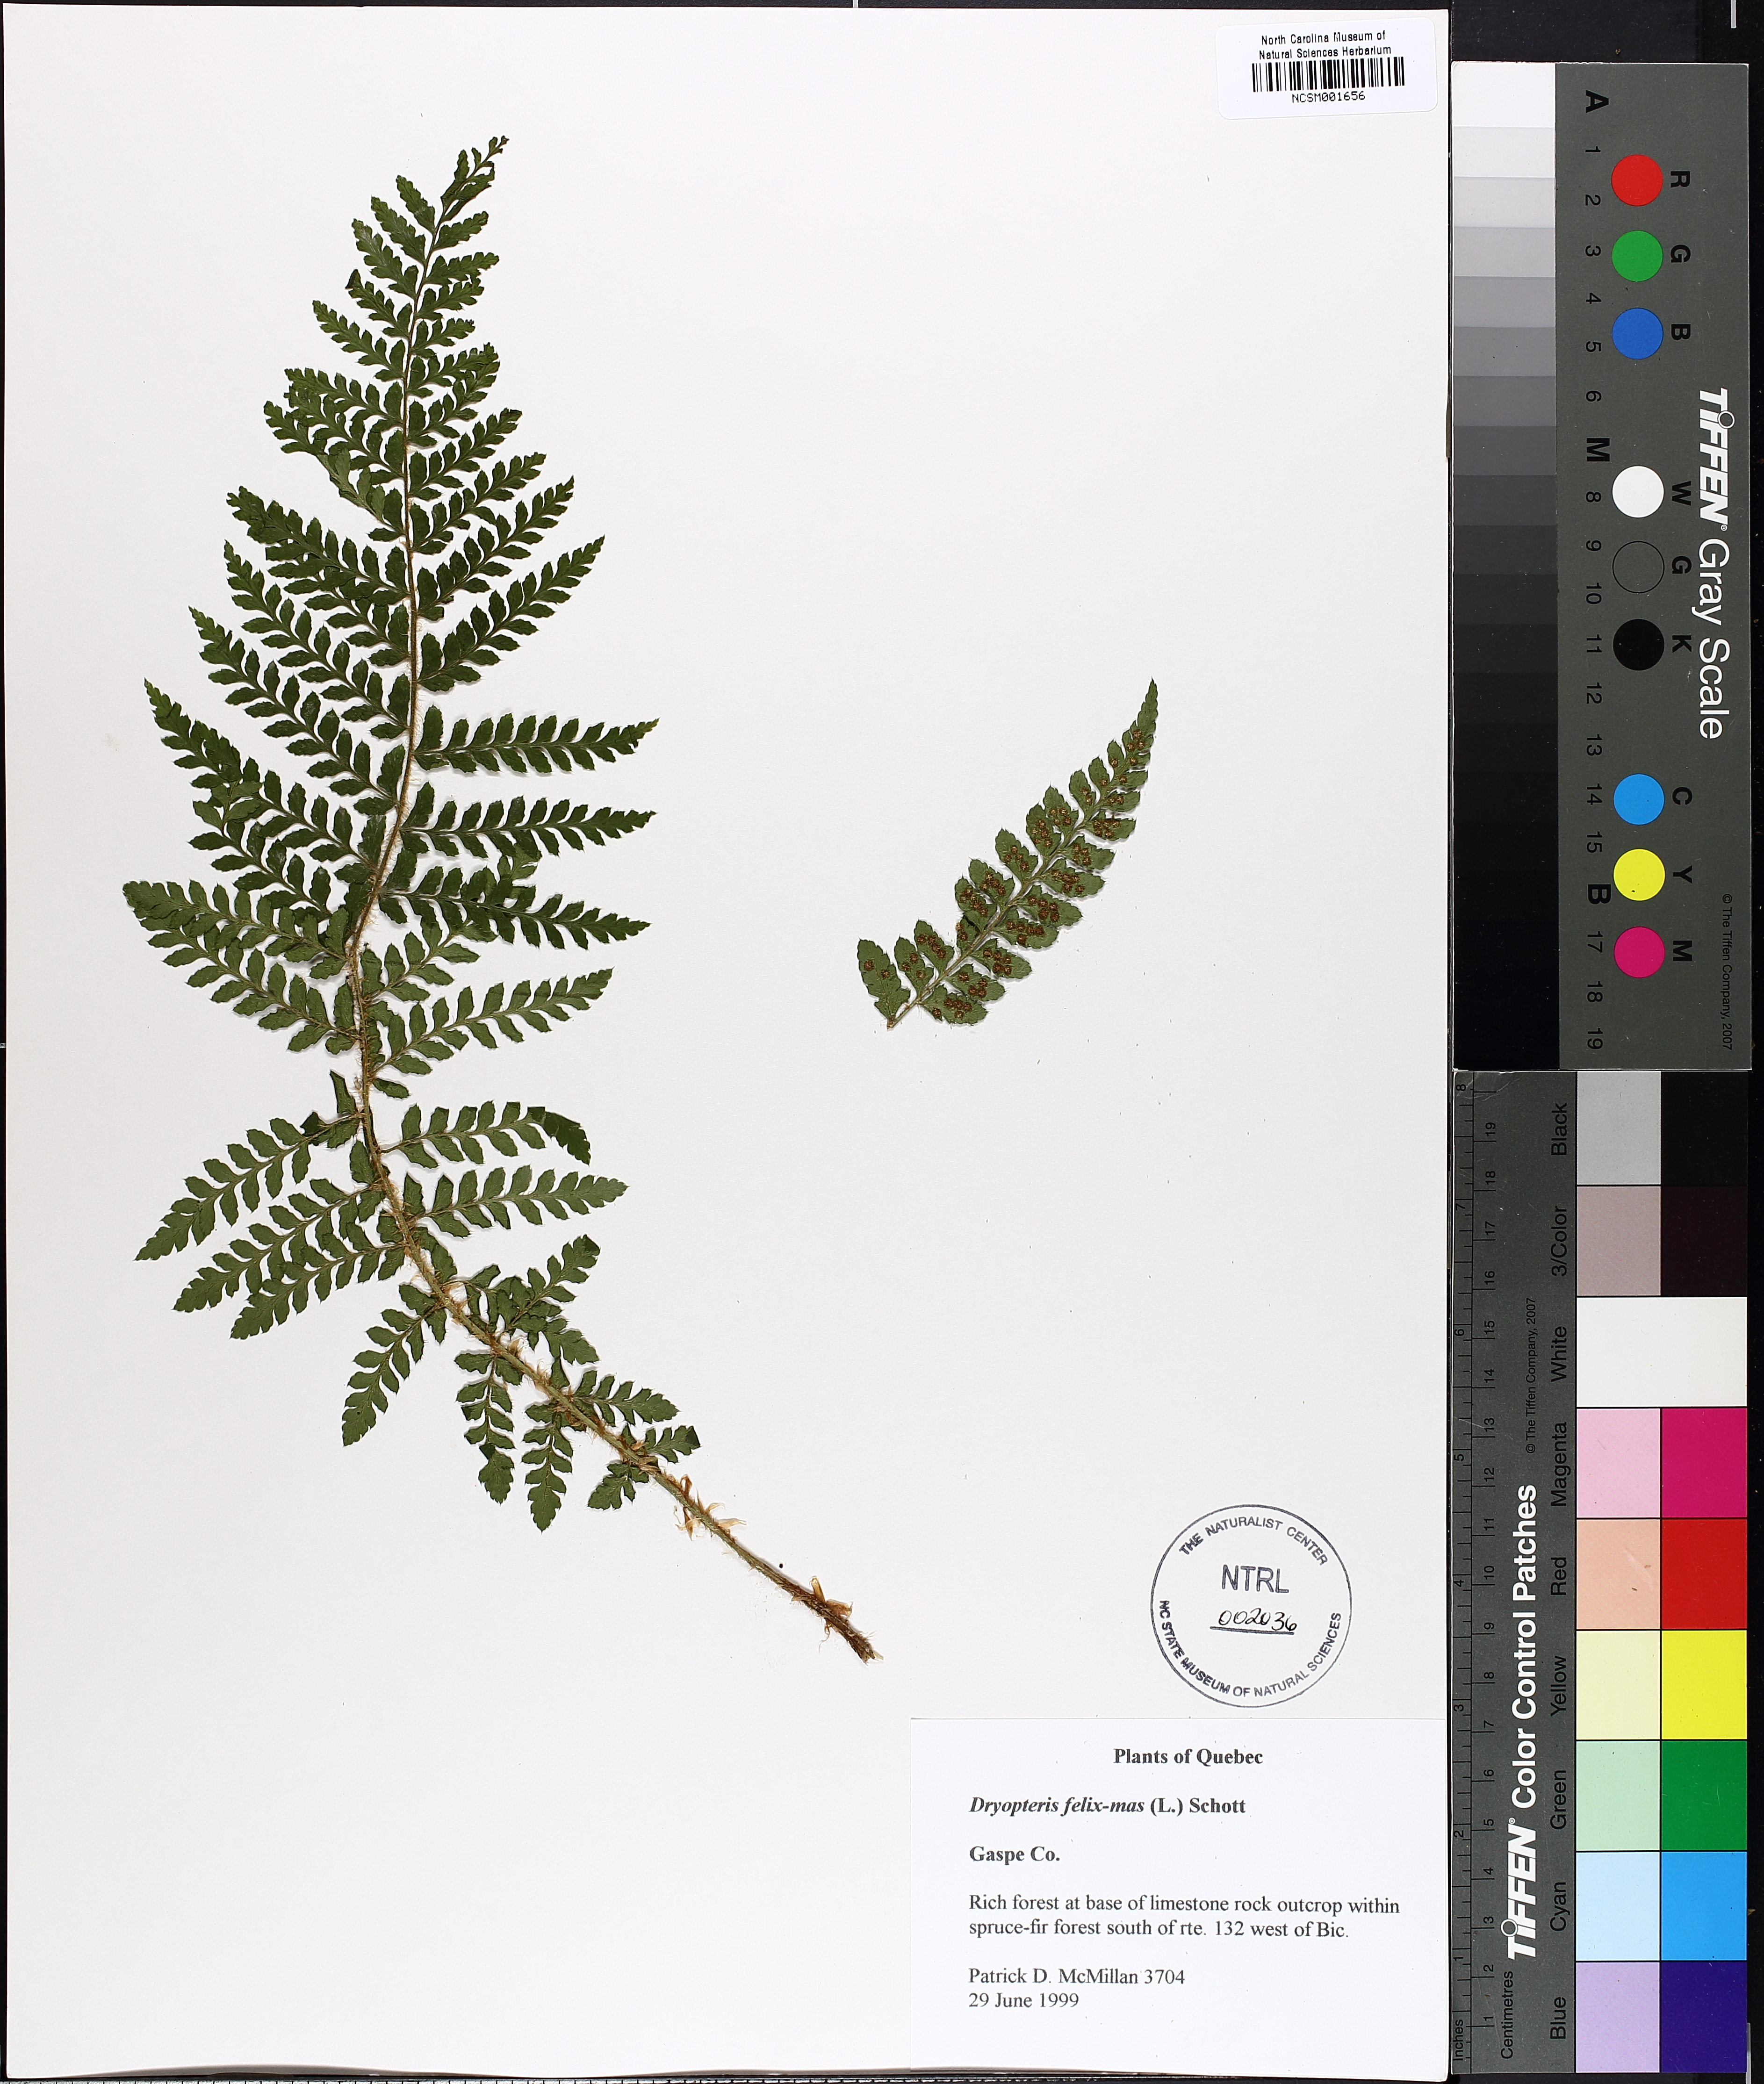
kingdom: Plantae
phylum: Tracheophyta
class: Polypodiopsida
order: Polypodiales
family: Dryopteridaceae
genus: Dryopteris
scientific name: Dryopteris filix-mas
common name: Male fern
